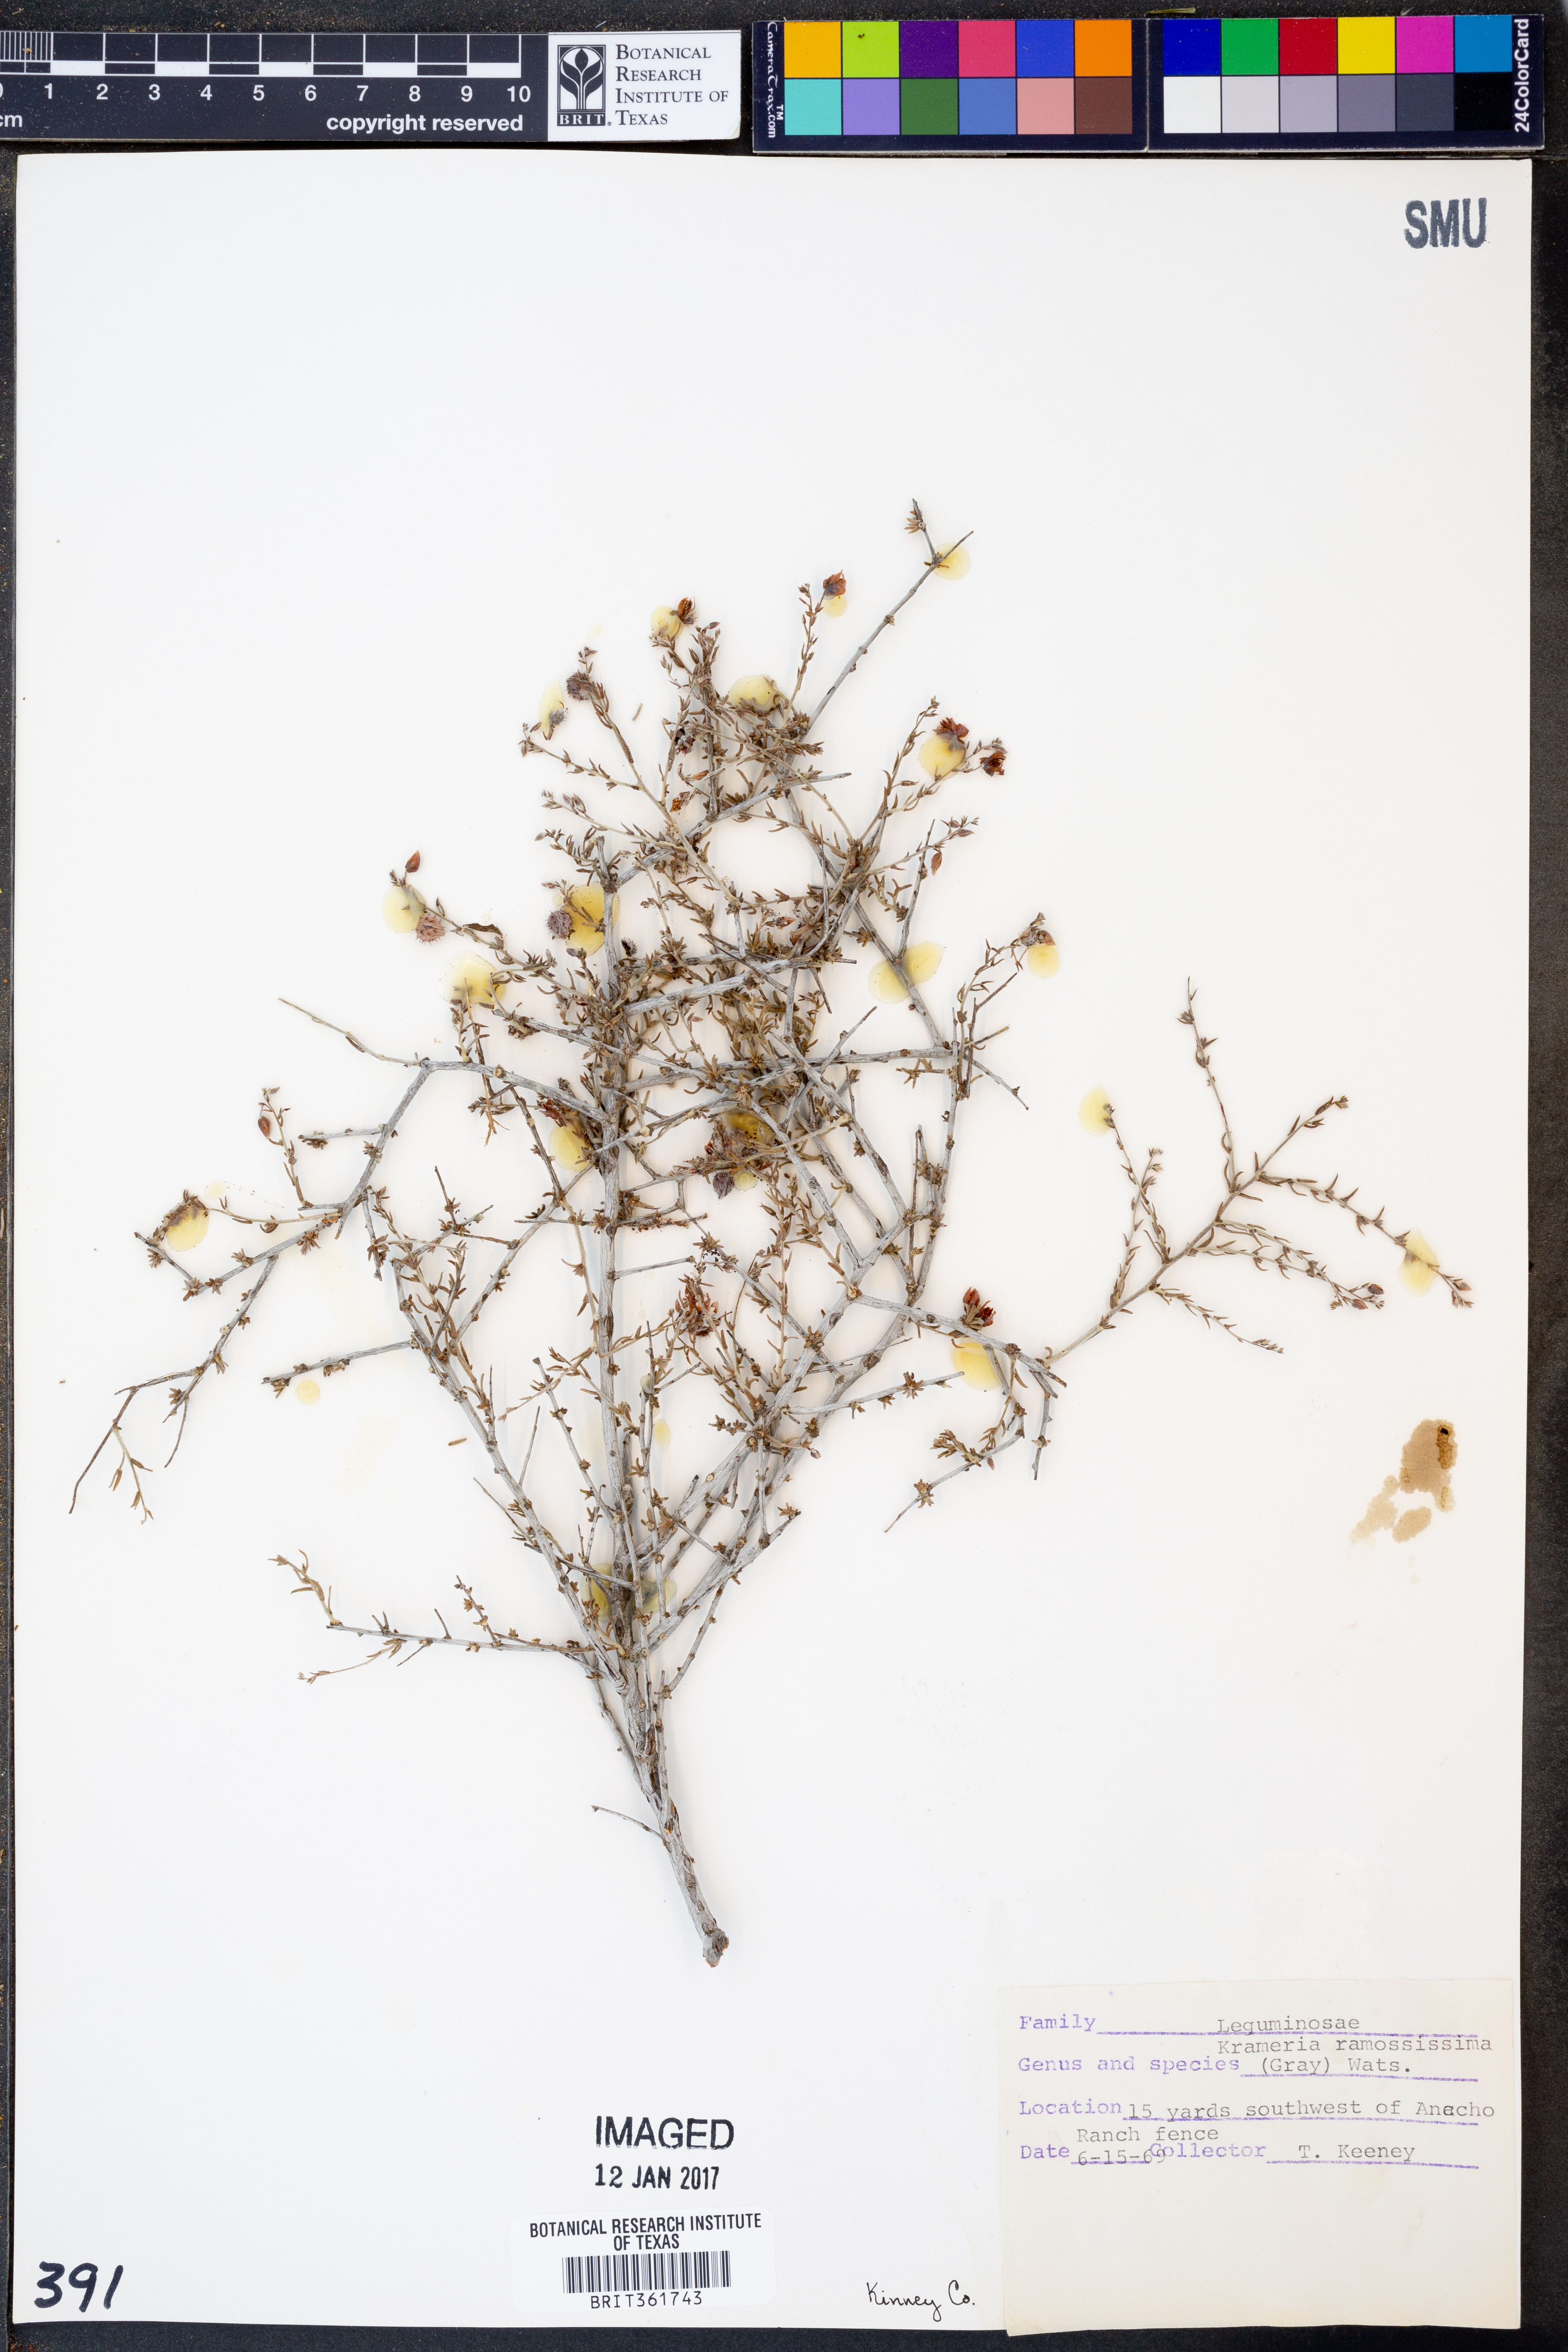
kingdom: Plantae
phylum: Tracheophyta
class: Magnoliopsida
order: Zygophyllales
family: Krameriaceae
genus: Krameria
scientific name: Krameria ramosissima
